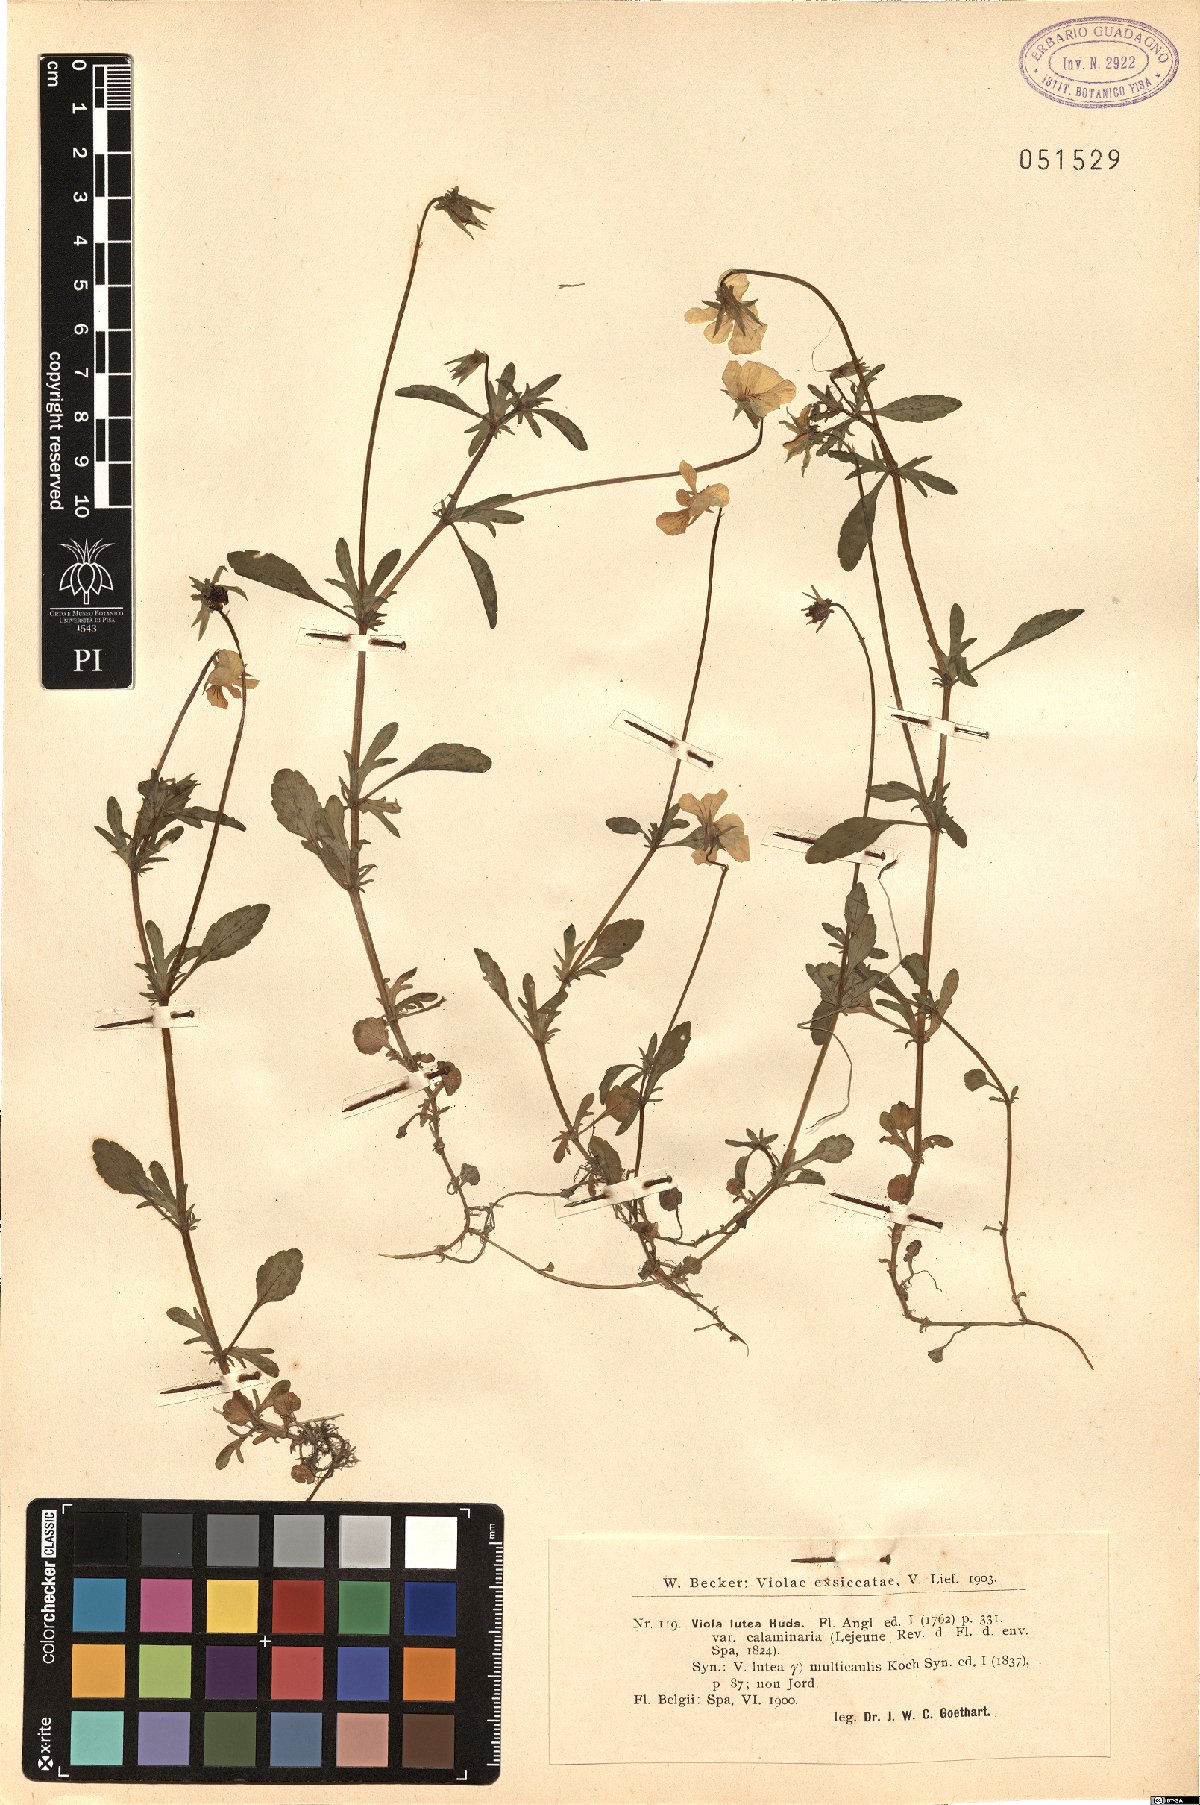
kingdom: Plantae
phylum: Tracheophyta
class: Magnoliopsida
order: Malpighiales
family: Violaceae
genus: Viola
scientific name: Viola lutea
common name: Mountain pansy
